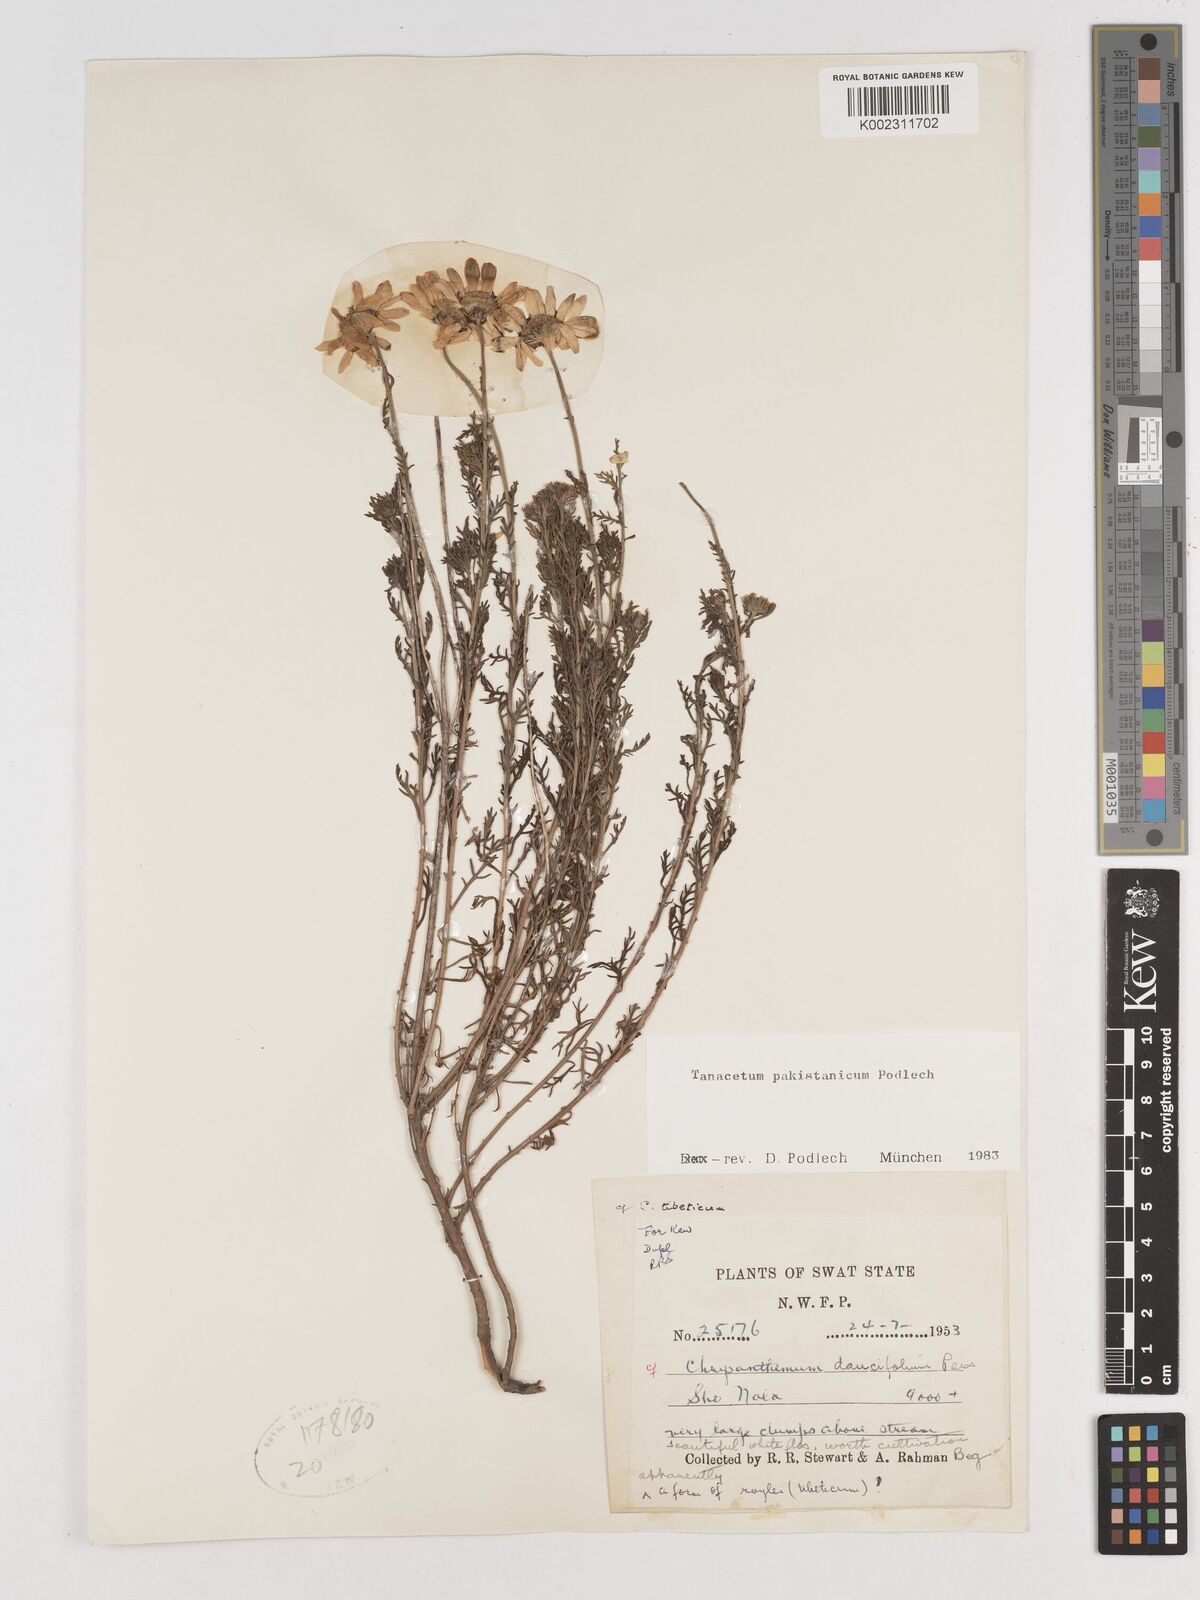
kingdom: Plantae
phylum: Tracheophyta
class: Magnoliopsida
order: Asterales
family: Asteraceae
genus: Tanacetum
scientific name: Tanacetum pakistanicum
